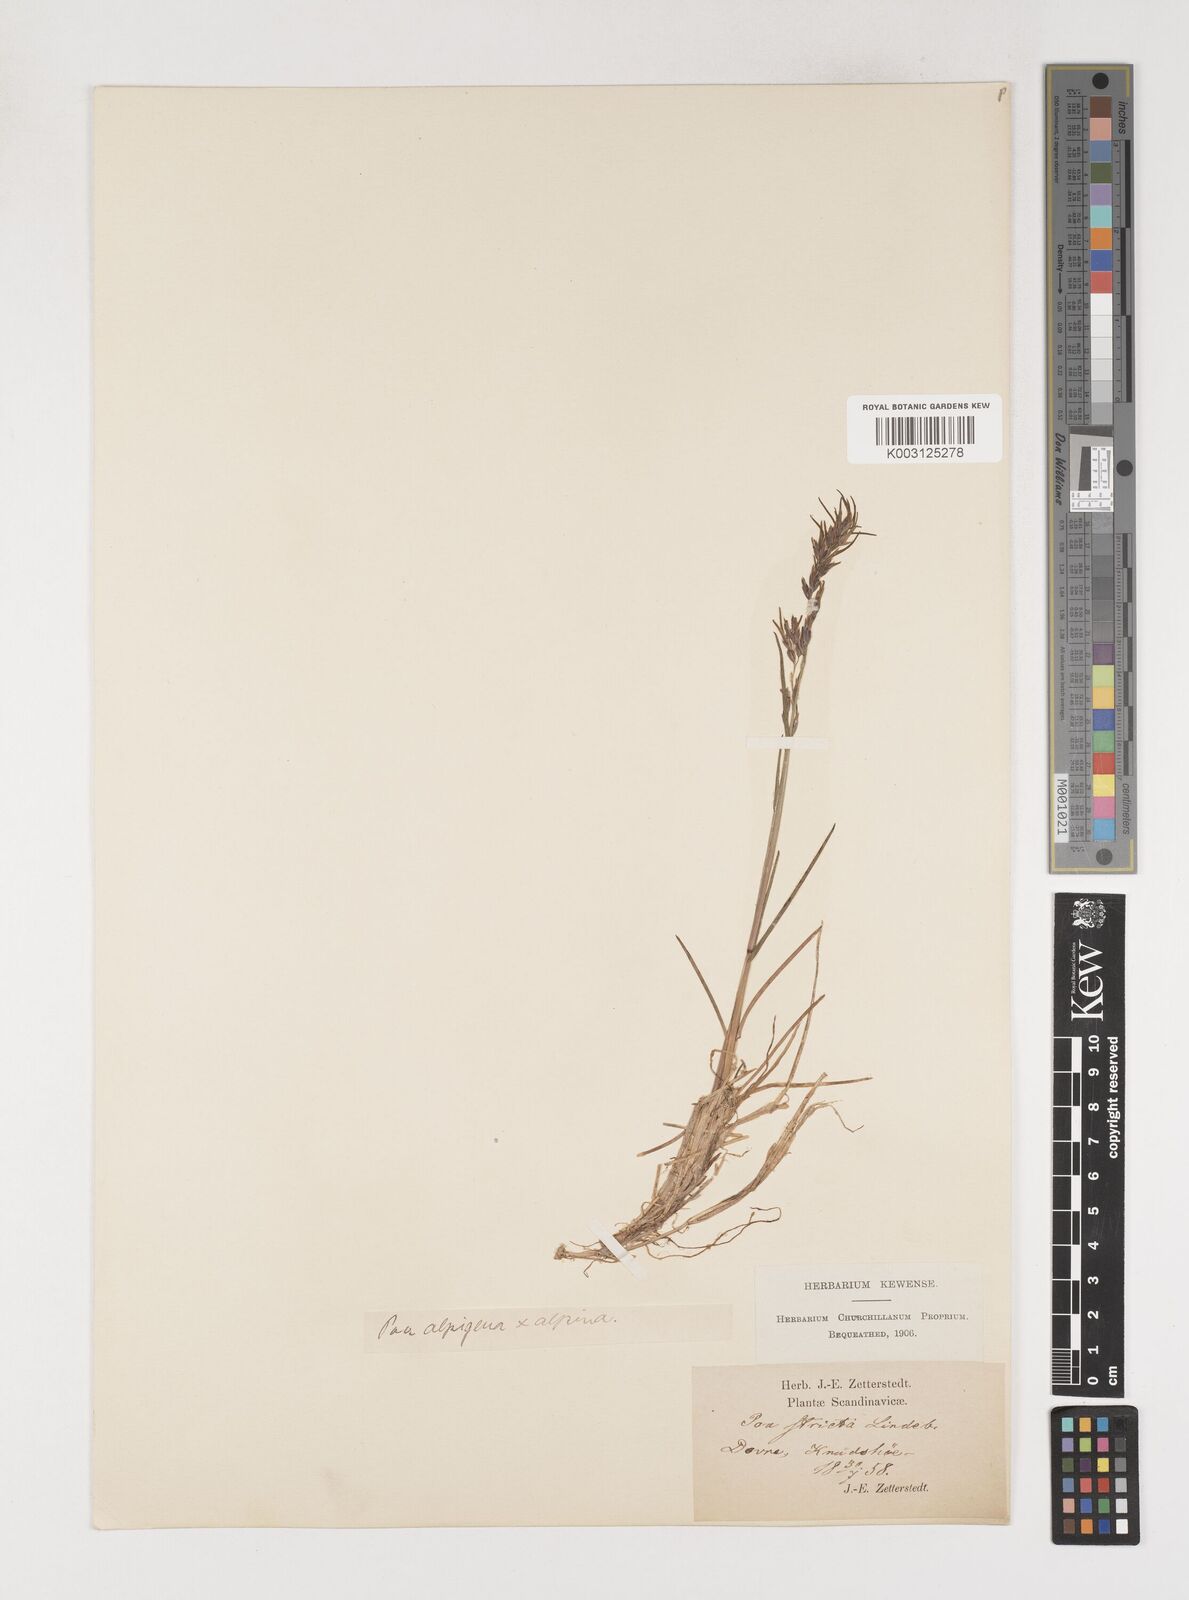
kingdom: Plantae
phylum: Tracheophyta
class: Liliopsida
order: Poales
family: Poaceae
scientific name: Poaceae
